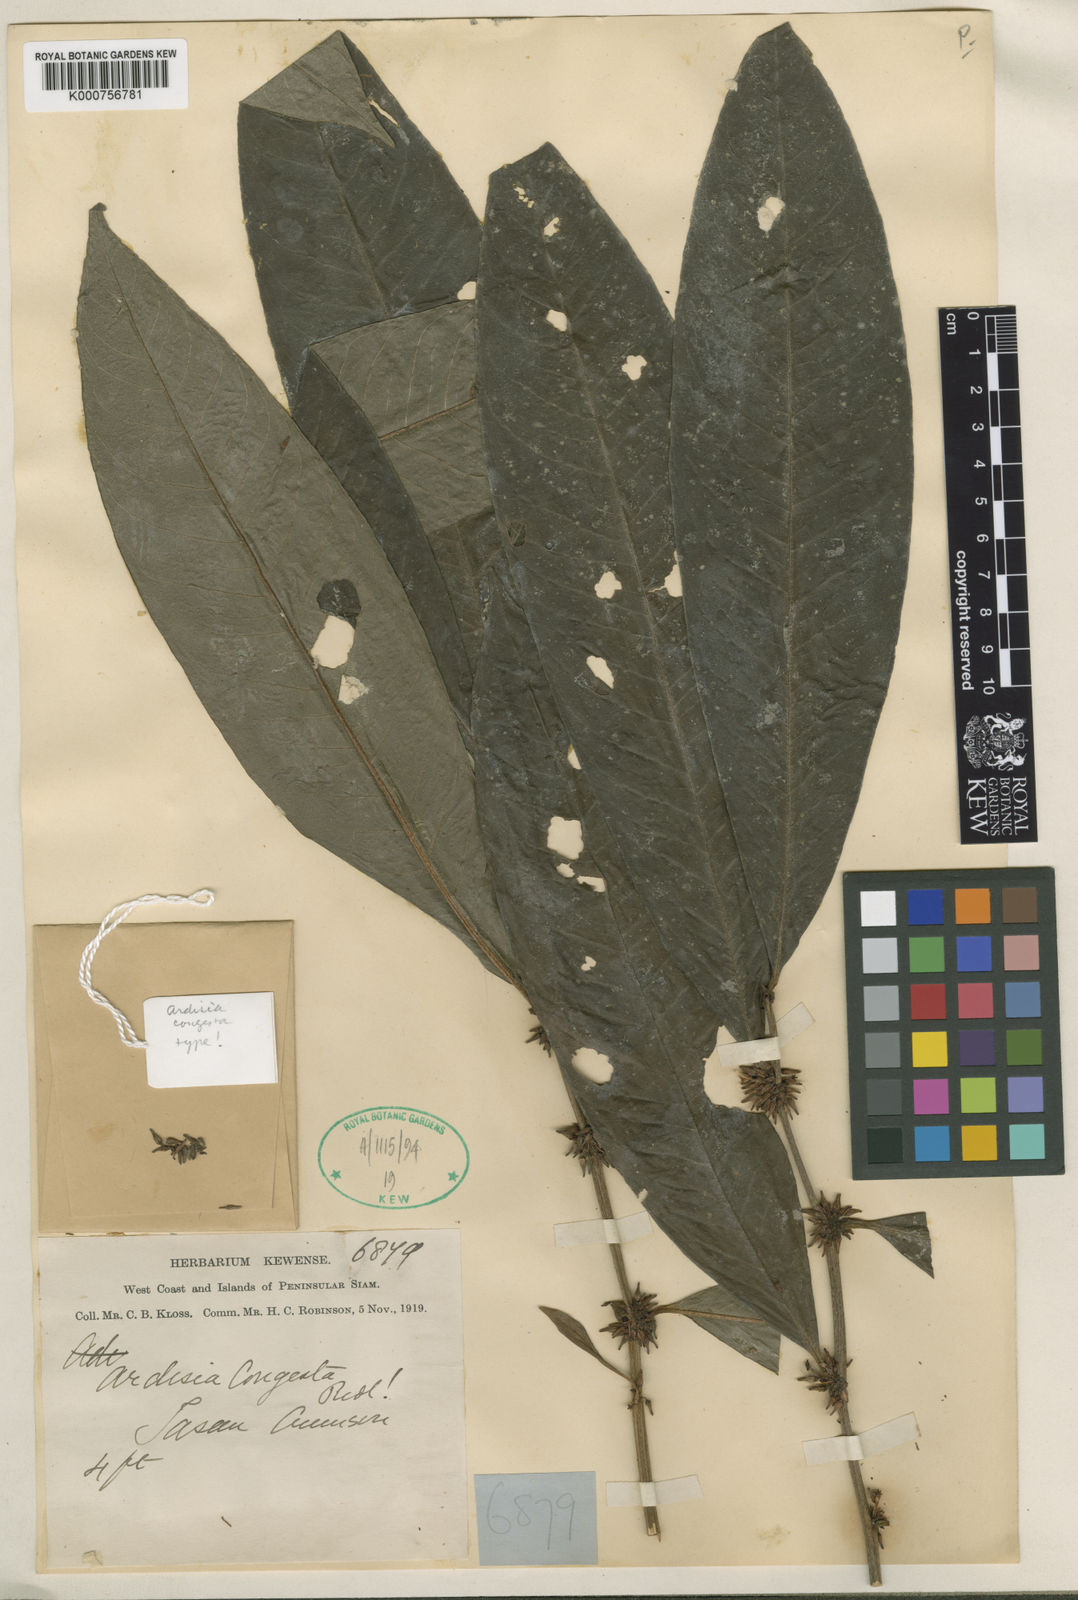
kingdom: Plantae
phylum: Tracheophyta
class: Magnoliopsida
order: Ericales
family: Primulaceae
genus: Ardisia
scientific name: Ardisia congesta
